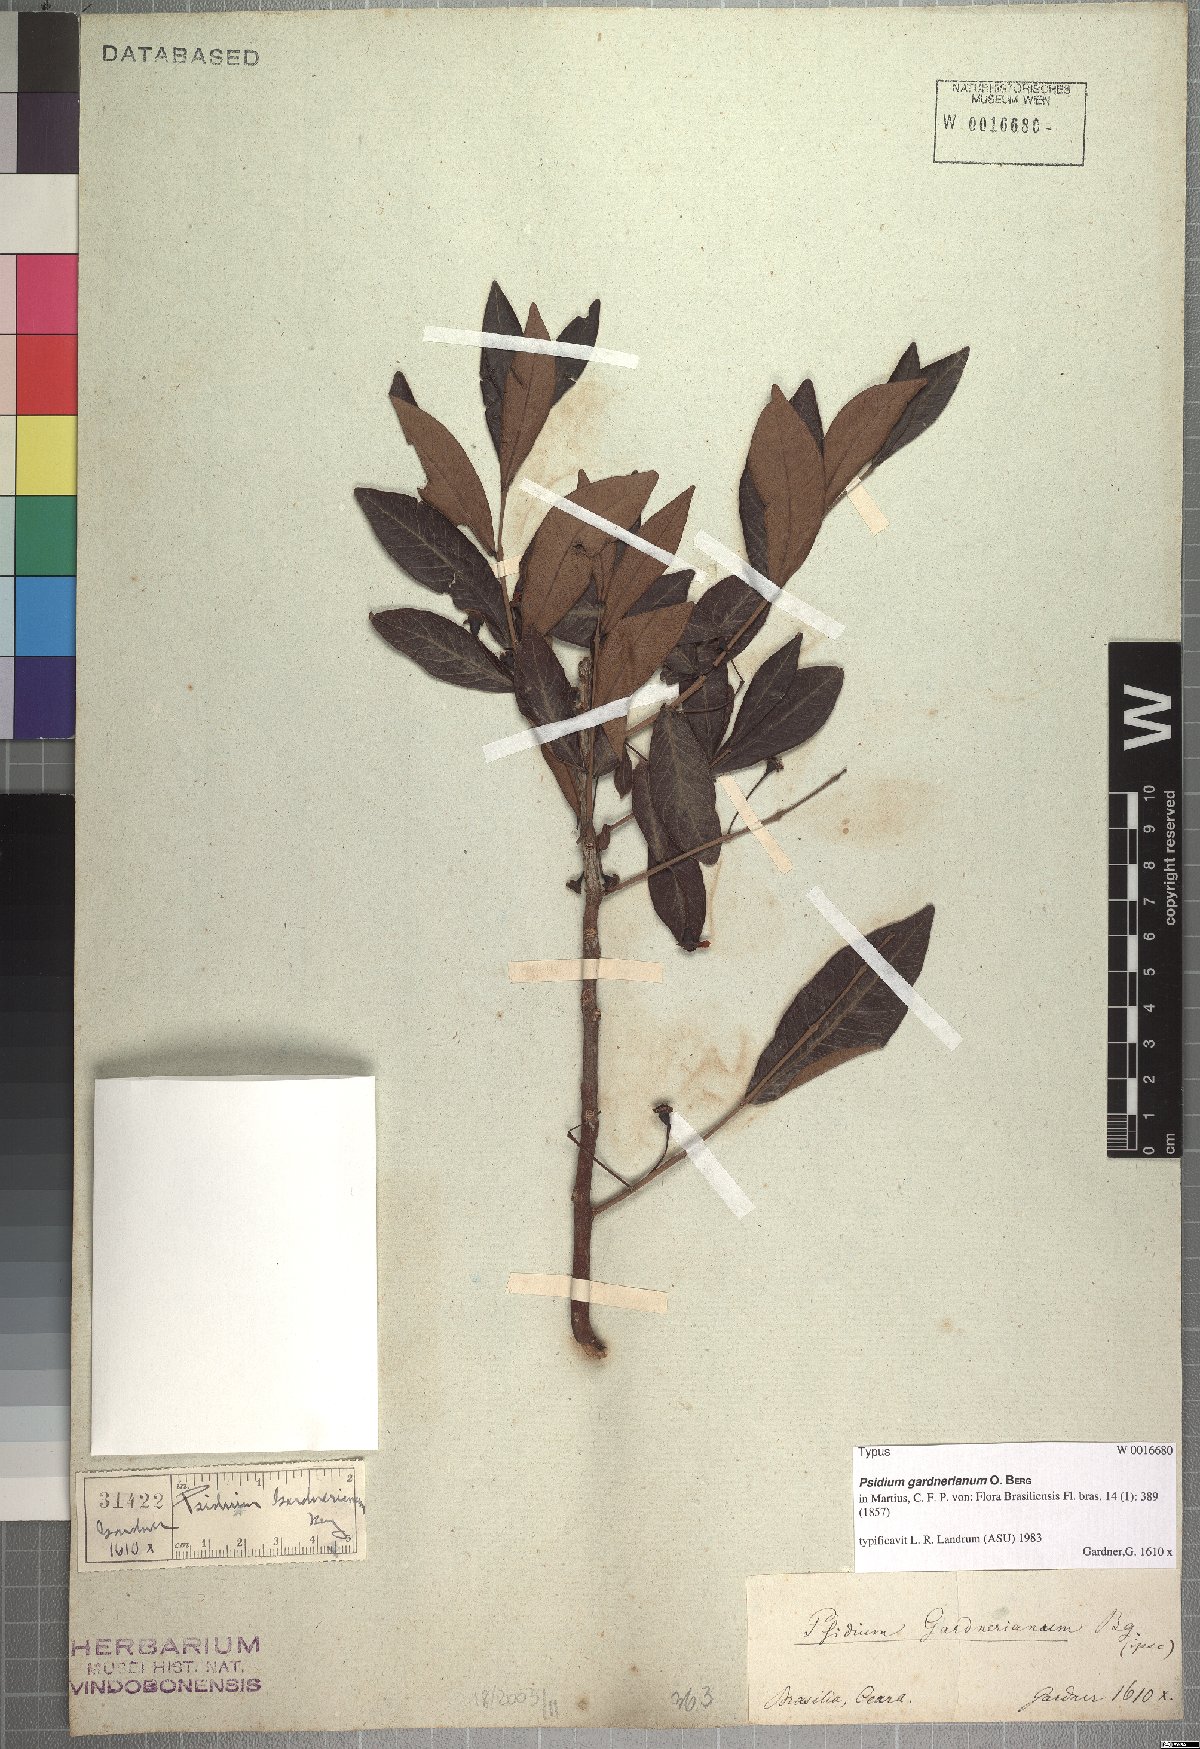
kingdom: Plantae
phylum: Tracheophyta
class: Magnoliopsida
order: Myrtales
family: Myrtaceae
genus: Psidium
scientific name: Psidium striatulum
